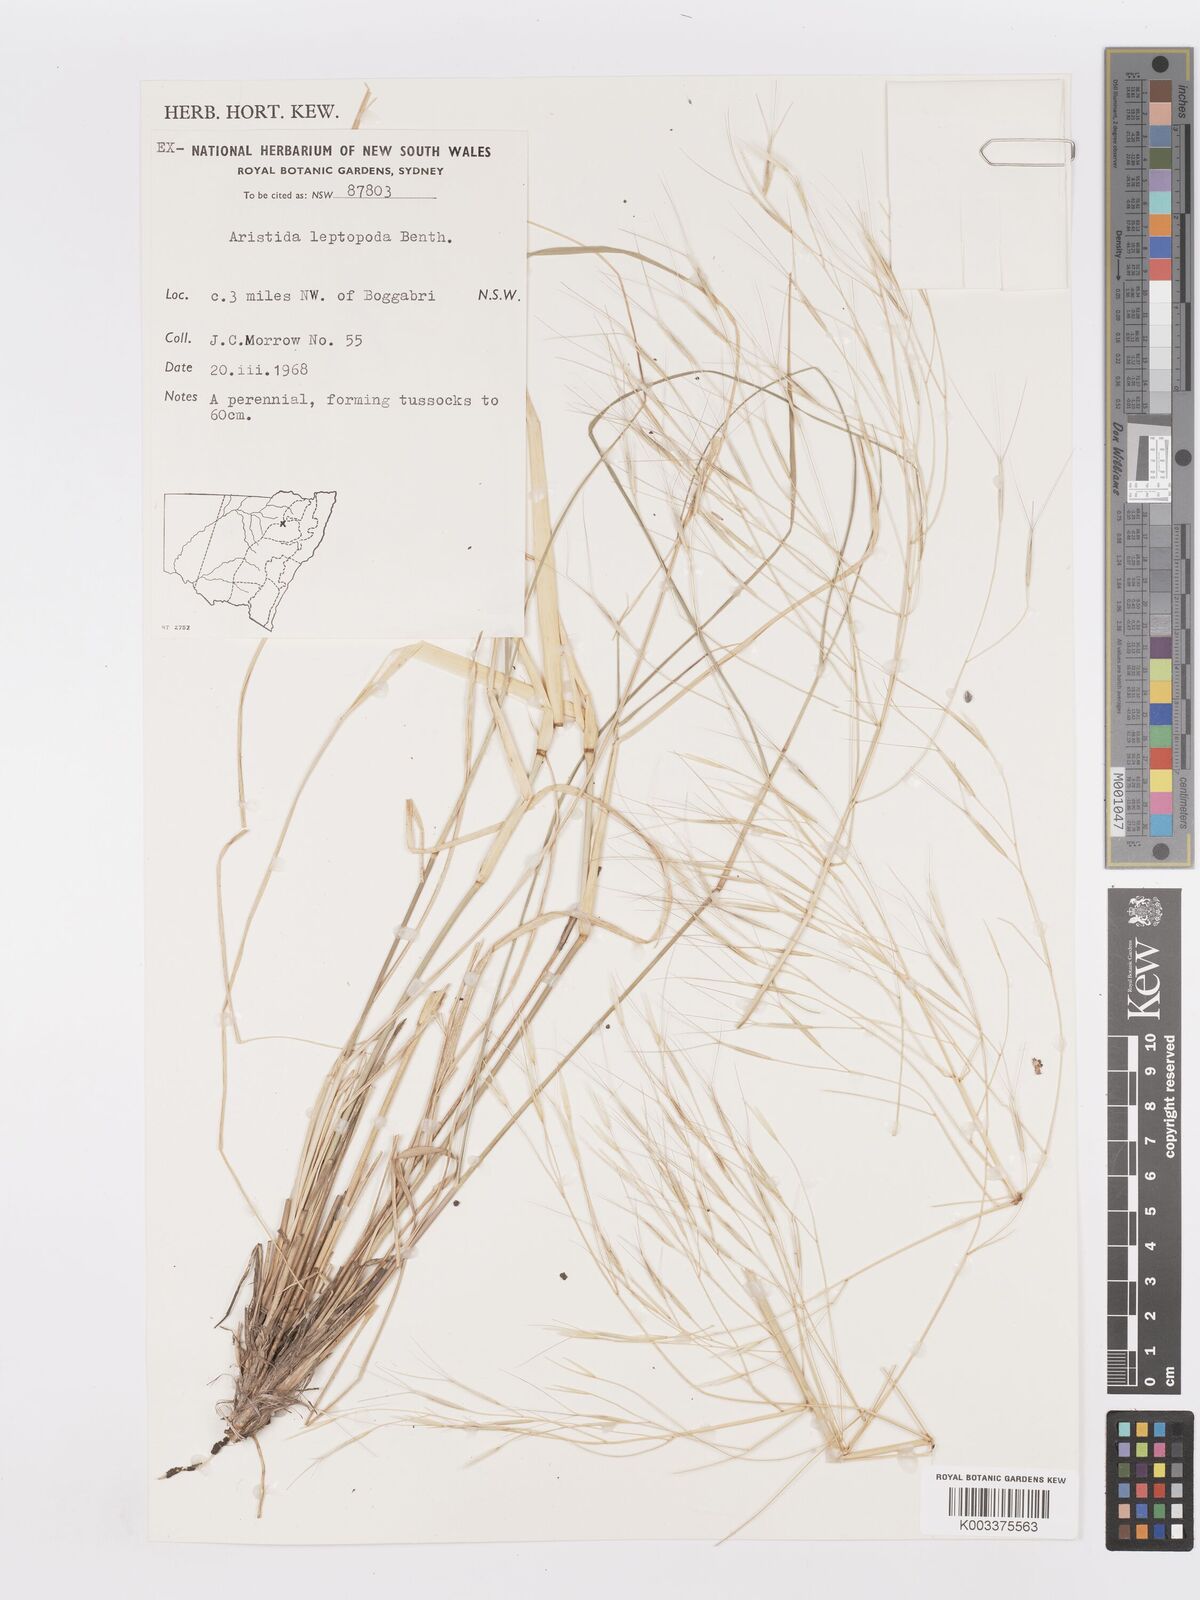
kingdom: Plantae
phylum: Tracheophyta
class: Liliopsida
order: Poales
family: Poaceae
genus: Aristida
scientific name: Aristida leptopoda
